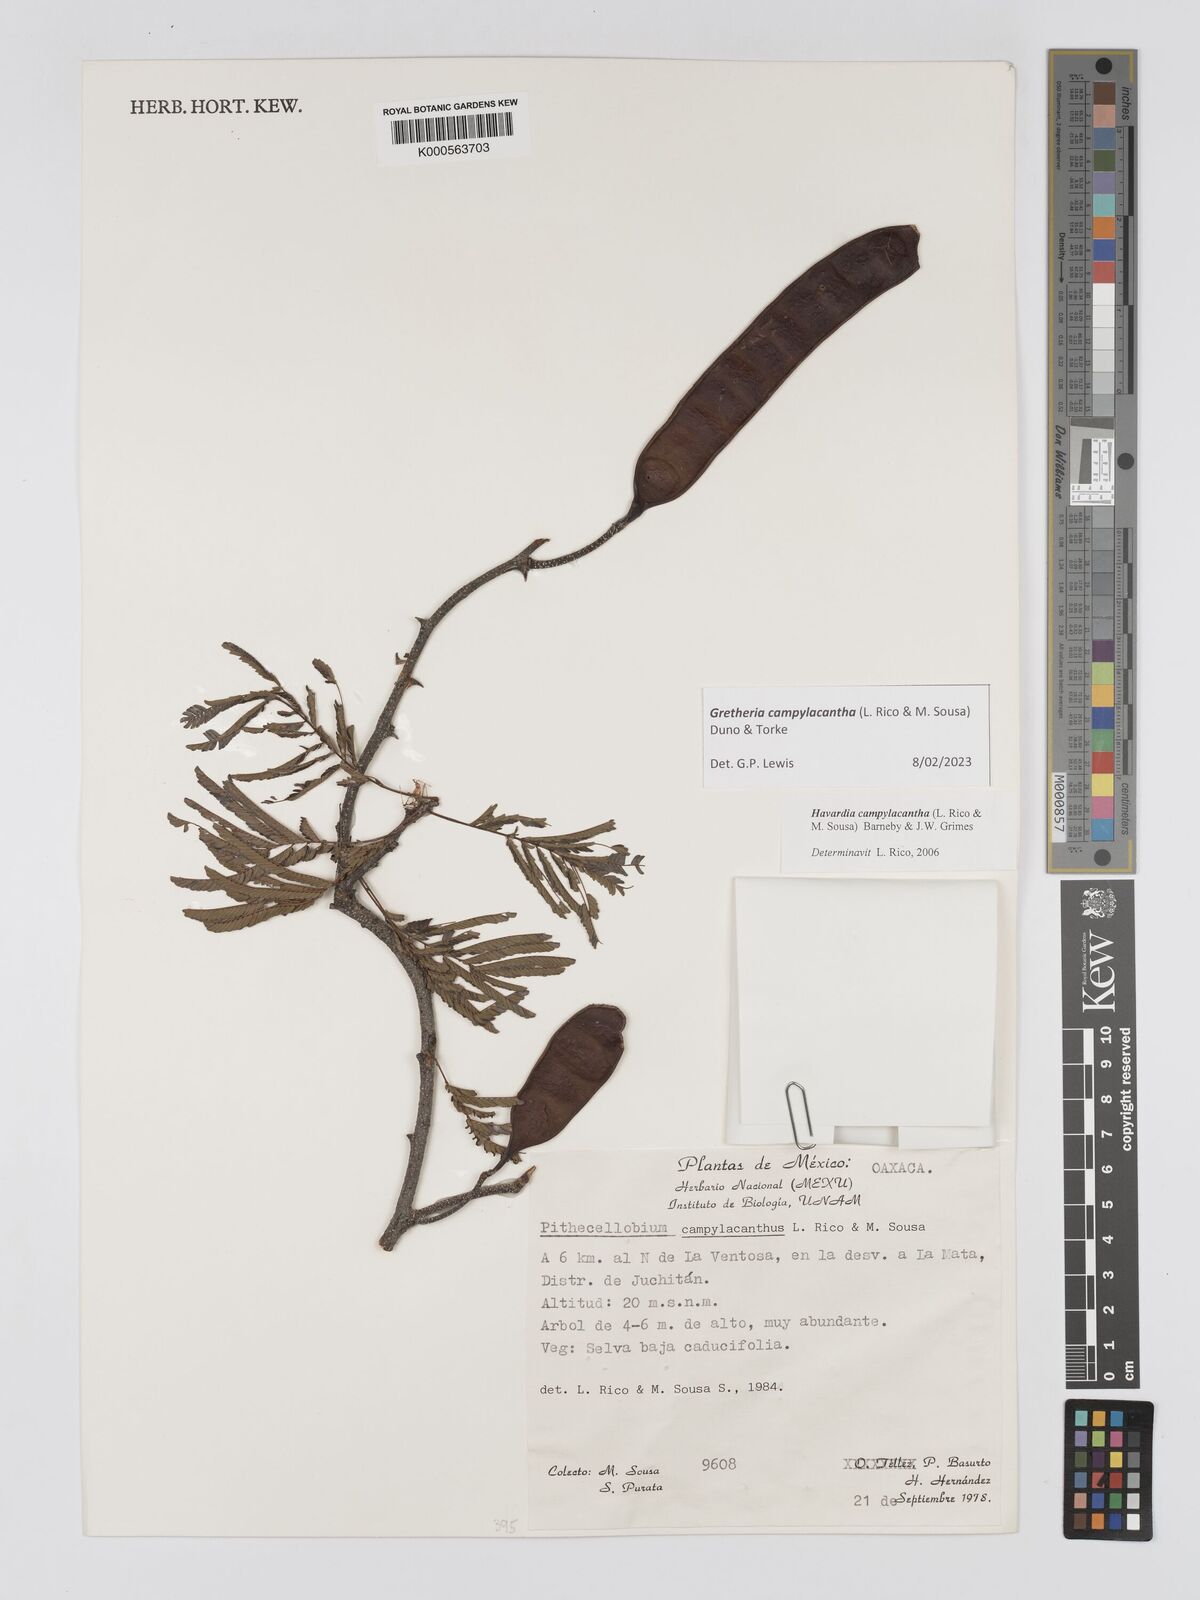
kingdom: Plantae
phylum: Tracheophyta
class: Magnoliopsida
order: Fabales
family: Fabaceae
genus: Havardia
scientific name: Havardia campylacantha
